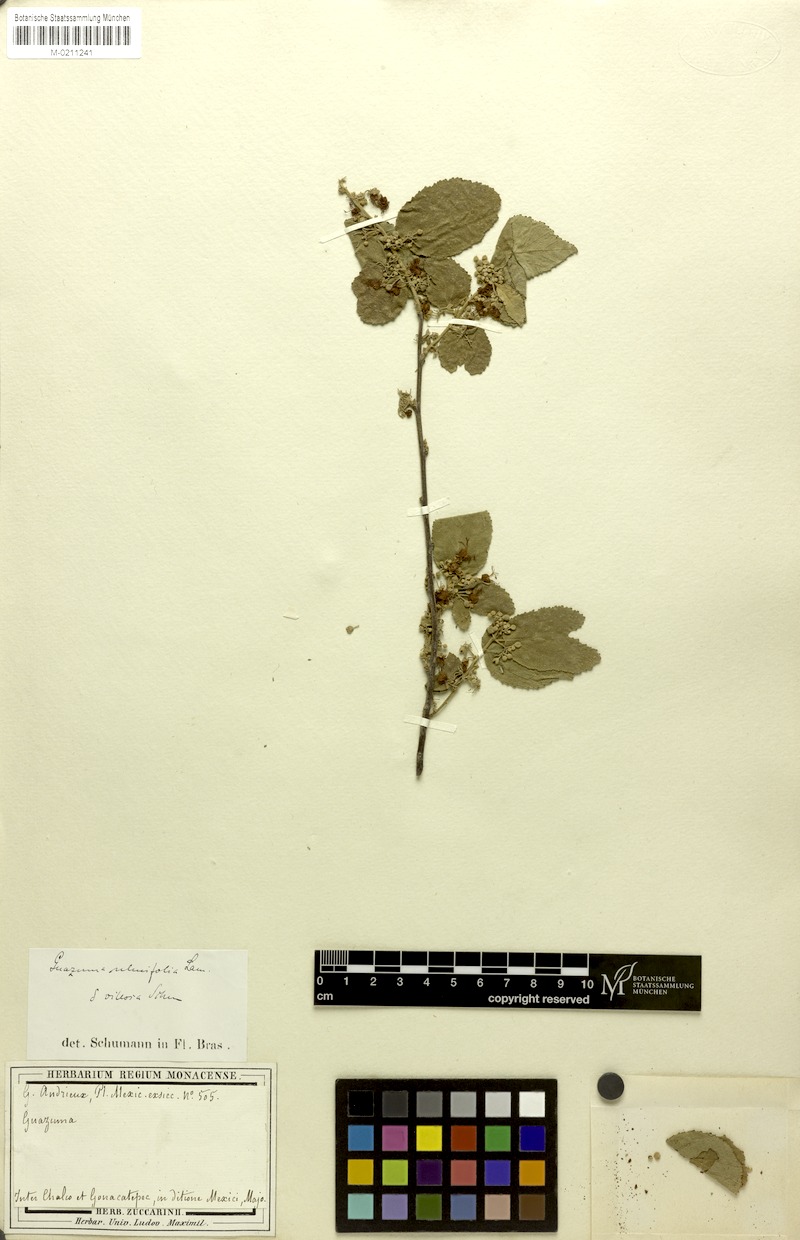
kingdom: Plantae
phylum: Tracheophyta
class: Magnoliopsida
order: Malvales
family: Malvaceae
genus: Guazuma
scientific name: Guazuma ulmifolia
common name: Bastard-cedar
